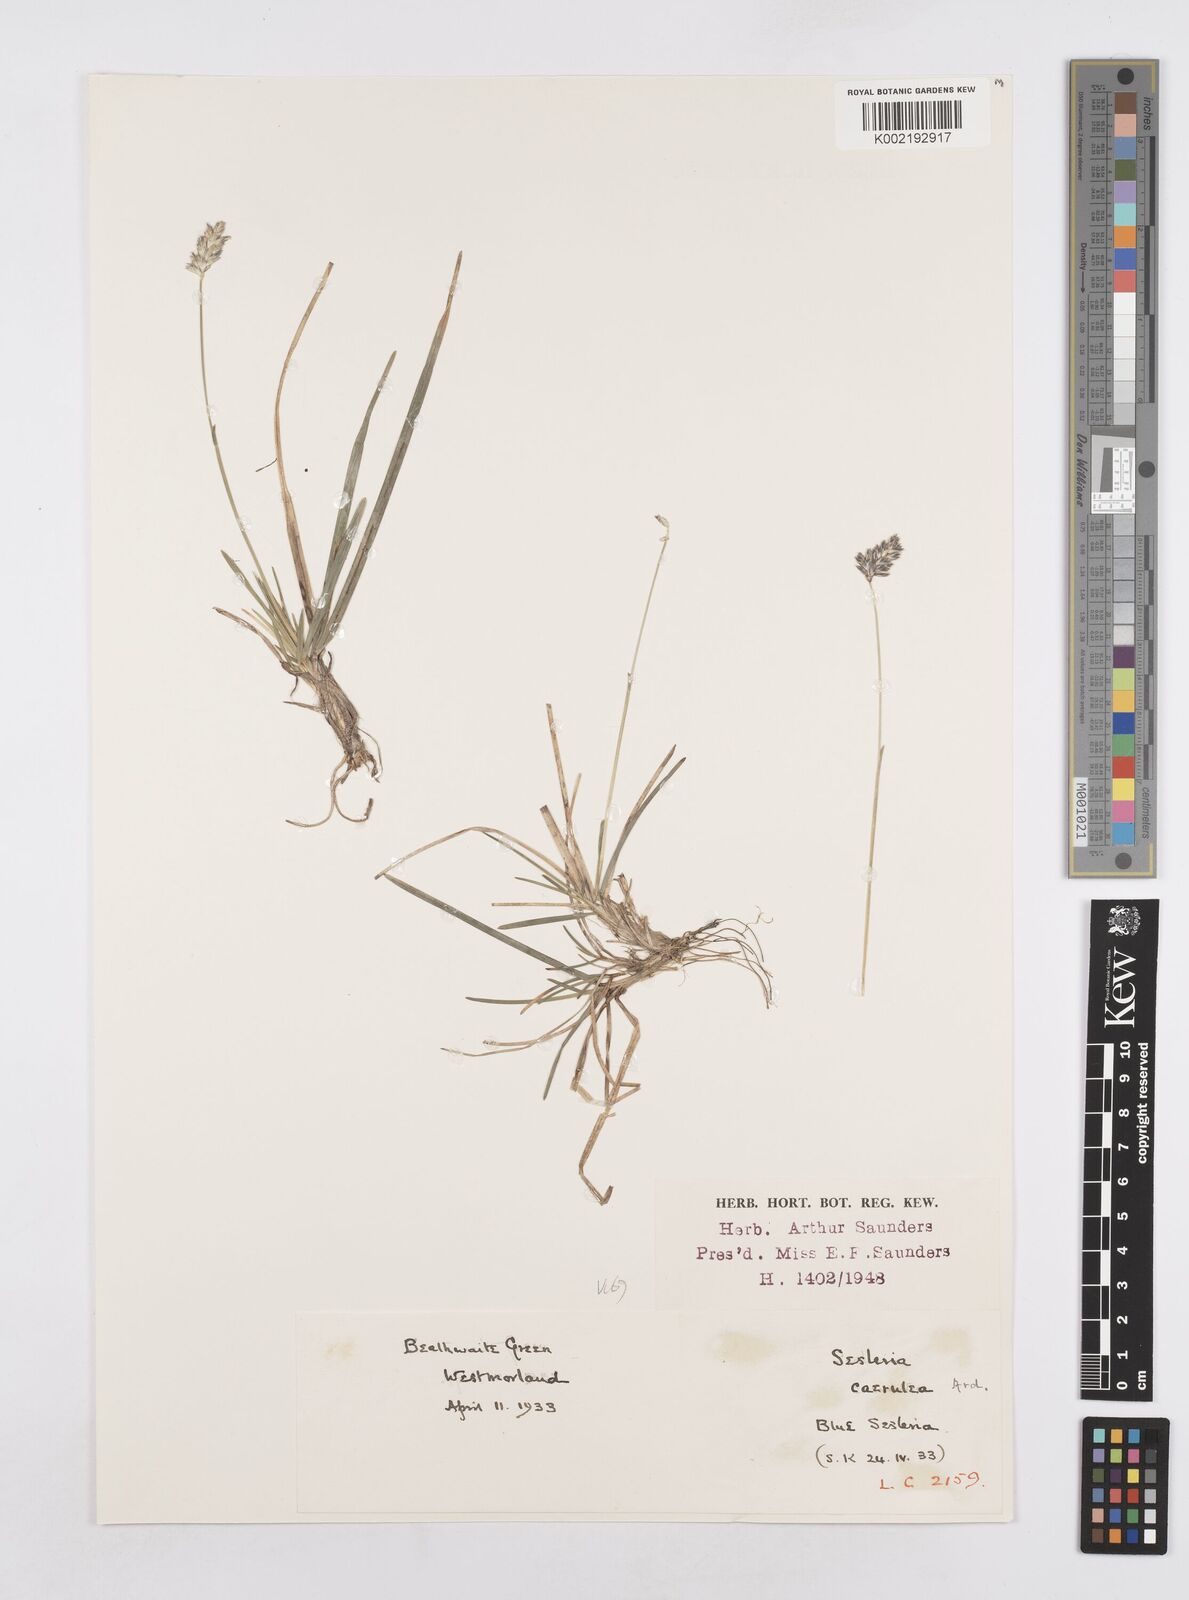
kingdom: Plantae
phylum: Tracheophyta
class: Liliopsida
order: Poales
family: Poaceae
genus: Sesleria
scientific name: Sesleria caerulea
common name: Blue moor-grass
